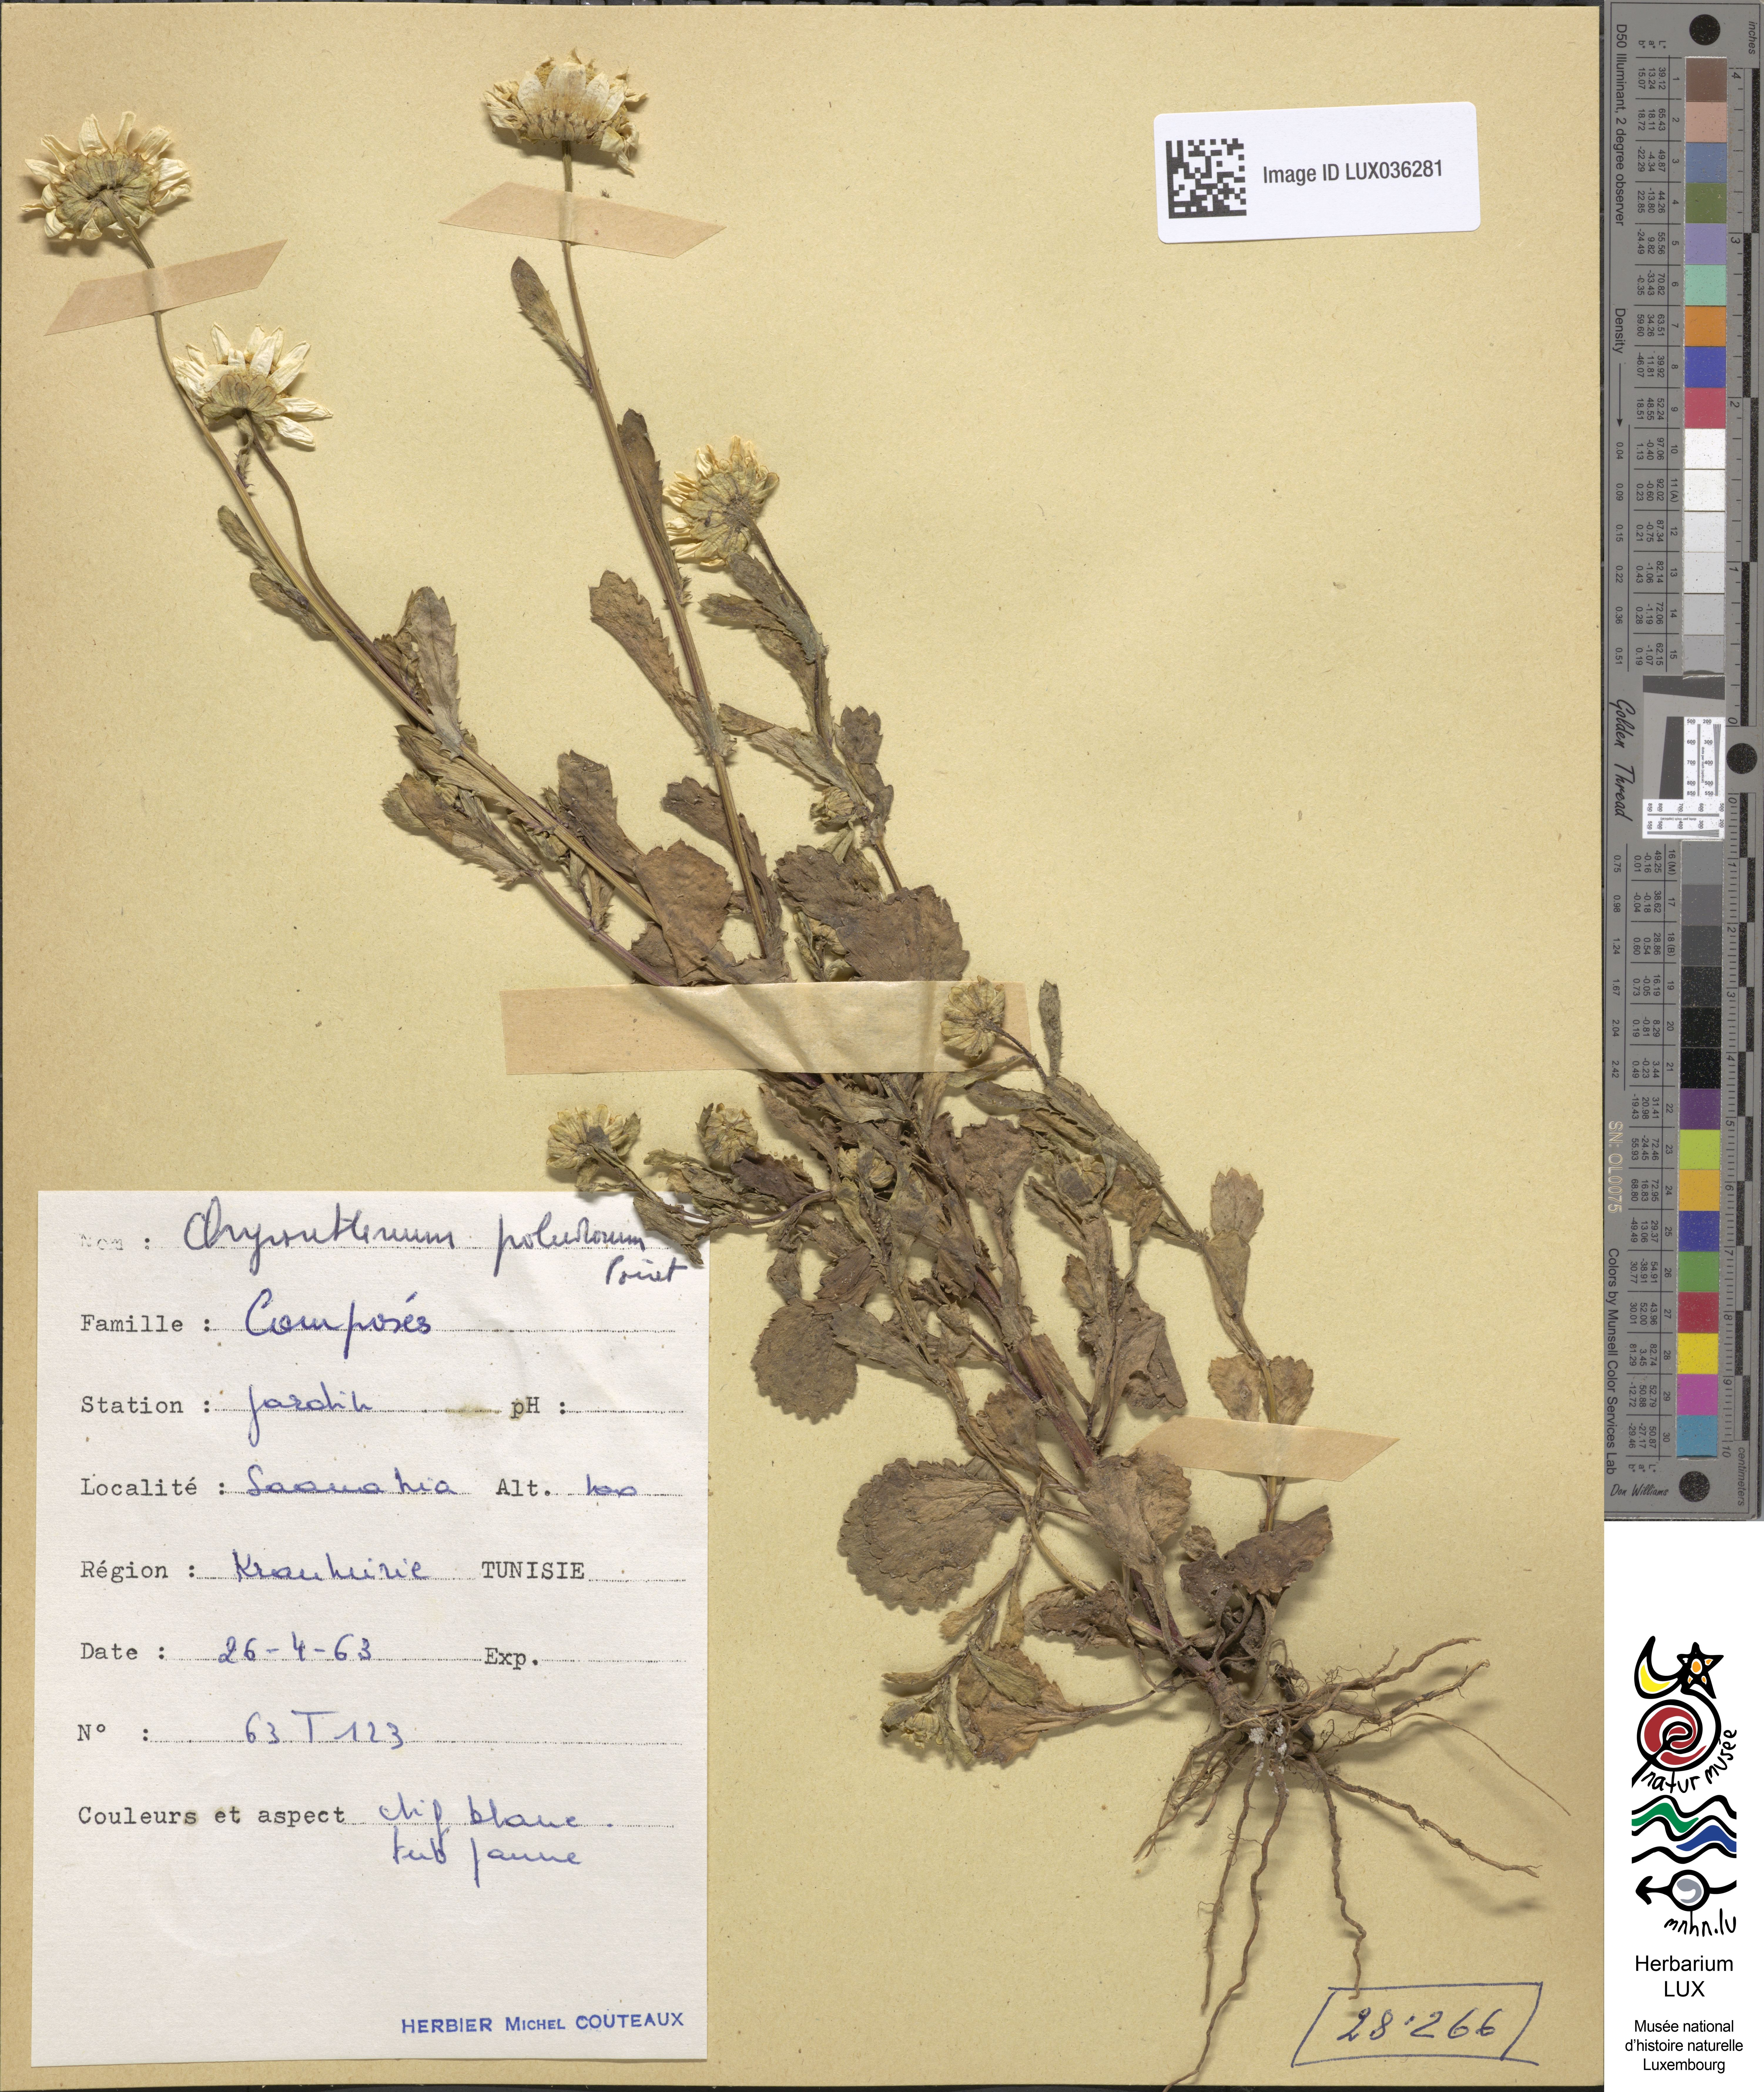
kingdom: Plantae
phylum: Tracheophyta
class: Magnoliopsida
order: Asterales
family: Asteraceae
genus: Mauranthemum
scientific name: Mauranthemum paludosum
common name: Sunflower
